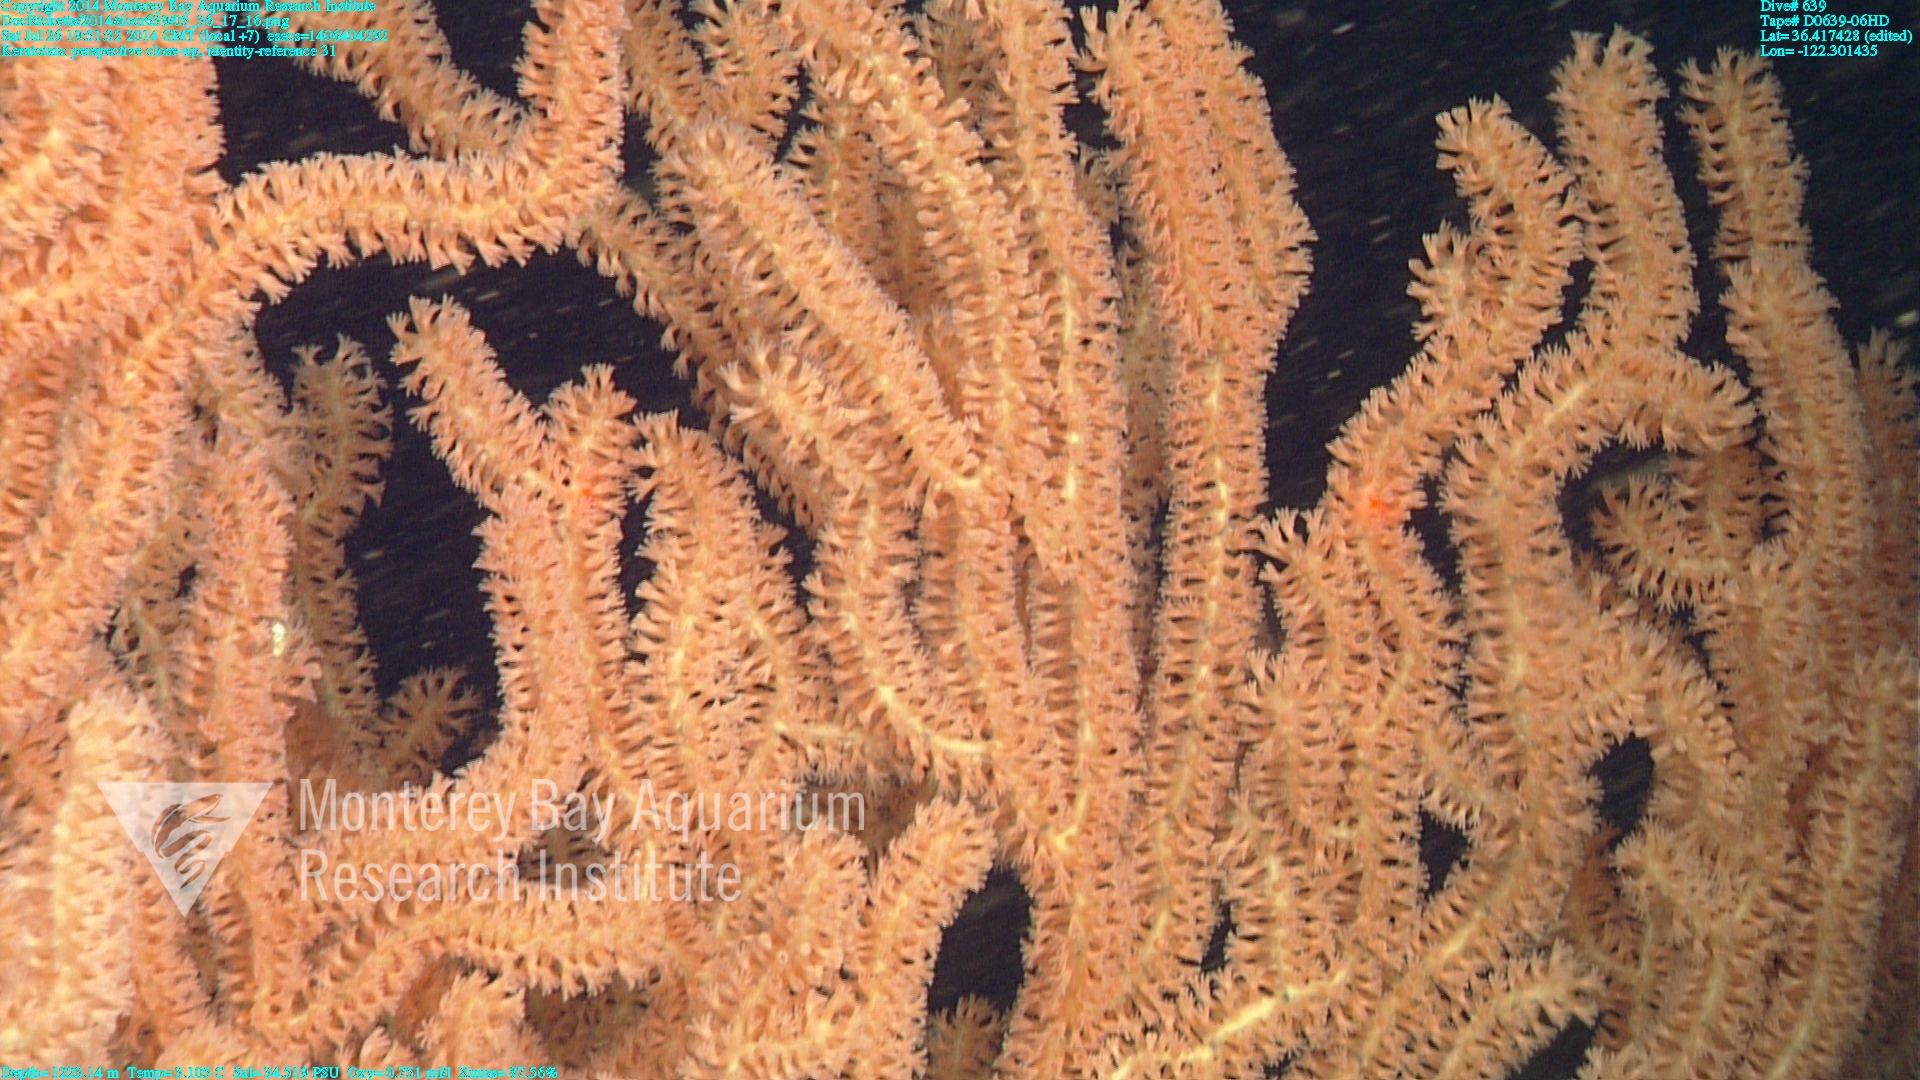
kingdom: Animalia
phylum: Cnidaria
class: Anthozoa
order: Scleralcyonacea
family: Keratoisididae
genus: Keratoisis
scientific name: Keratoisis
